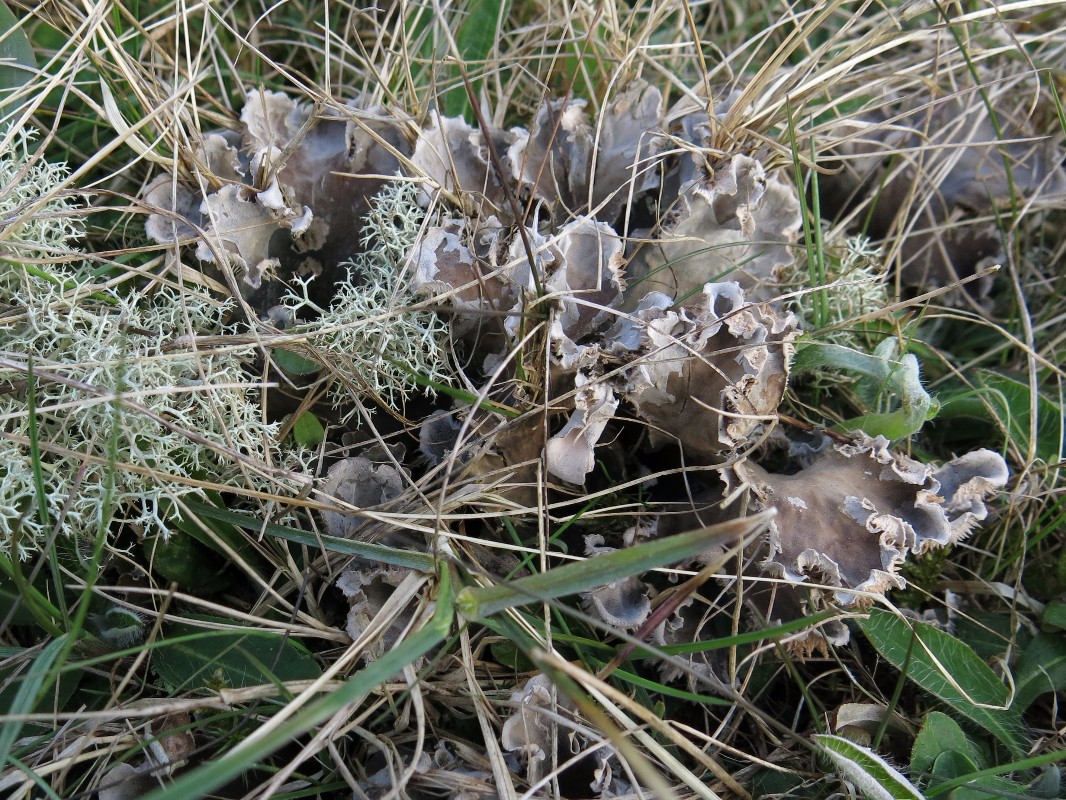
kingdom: Fungi
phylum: Ascomycota
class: Lecanoromycetes
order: Peltigerales
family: Peltigeraceae
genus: Peltigera
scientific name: Peltigera canina
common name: hunde-skjoldlav
